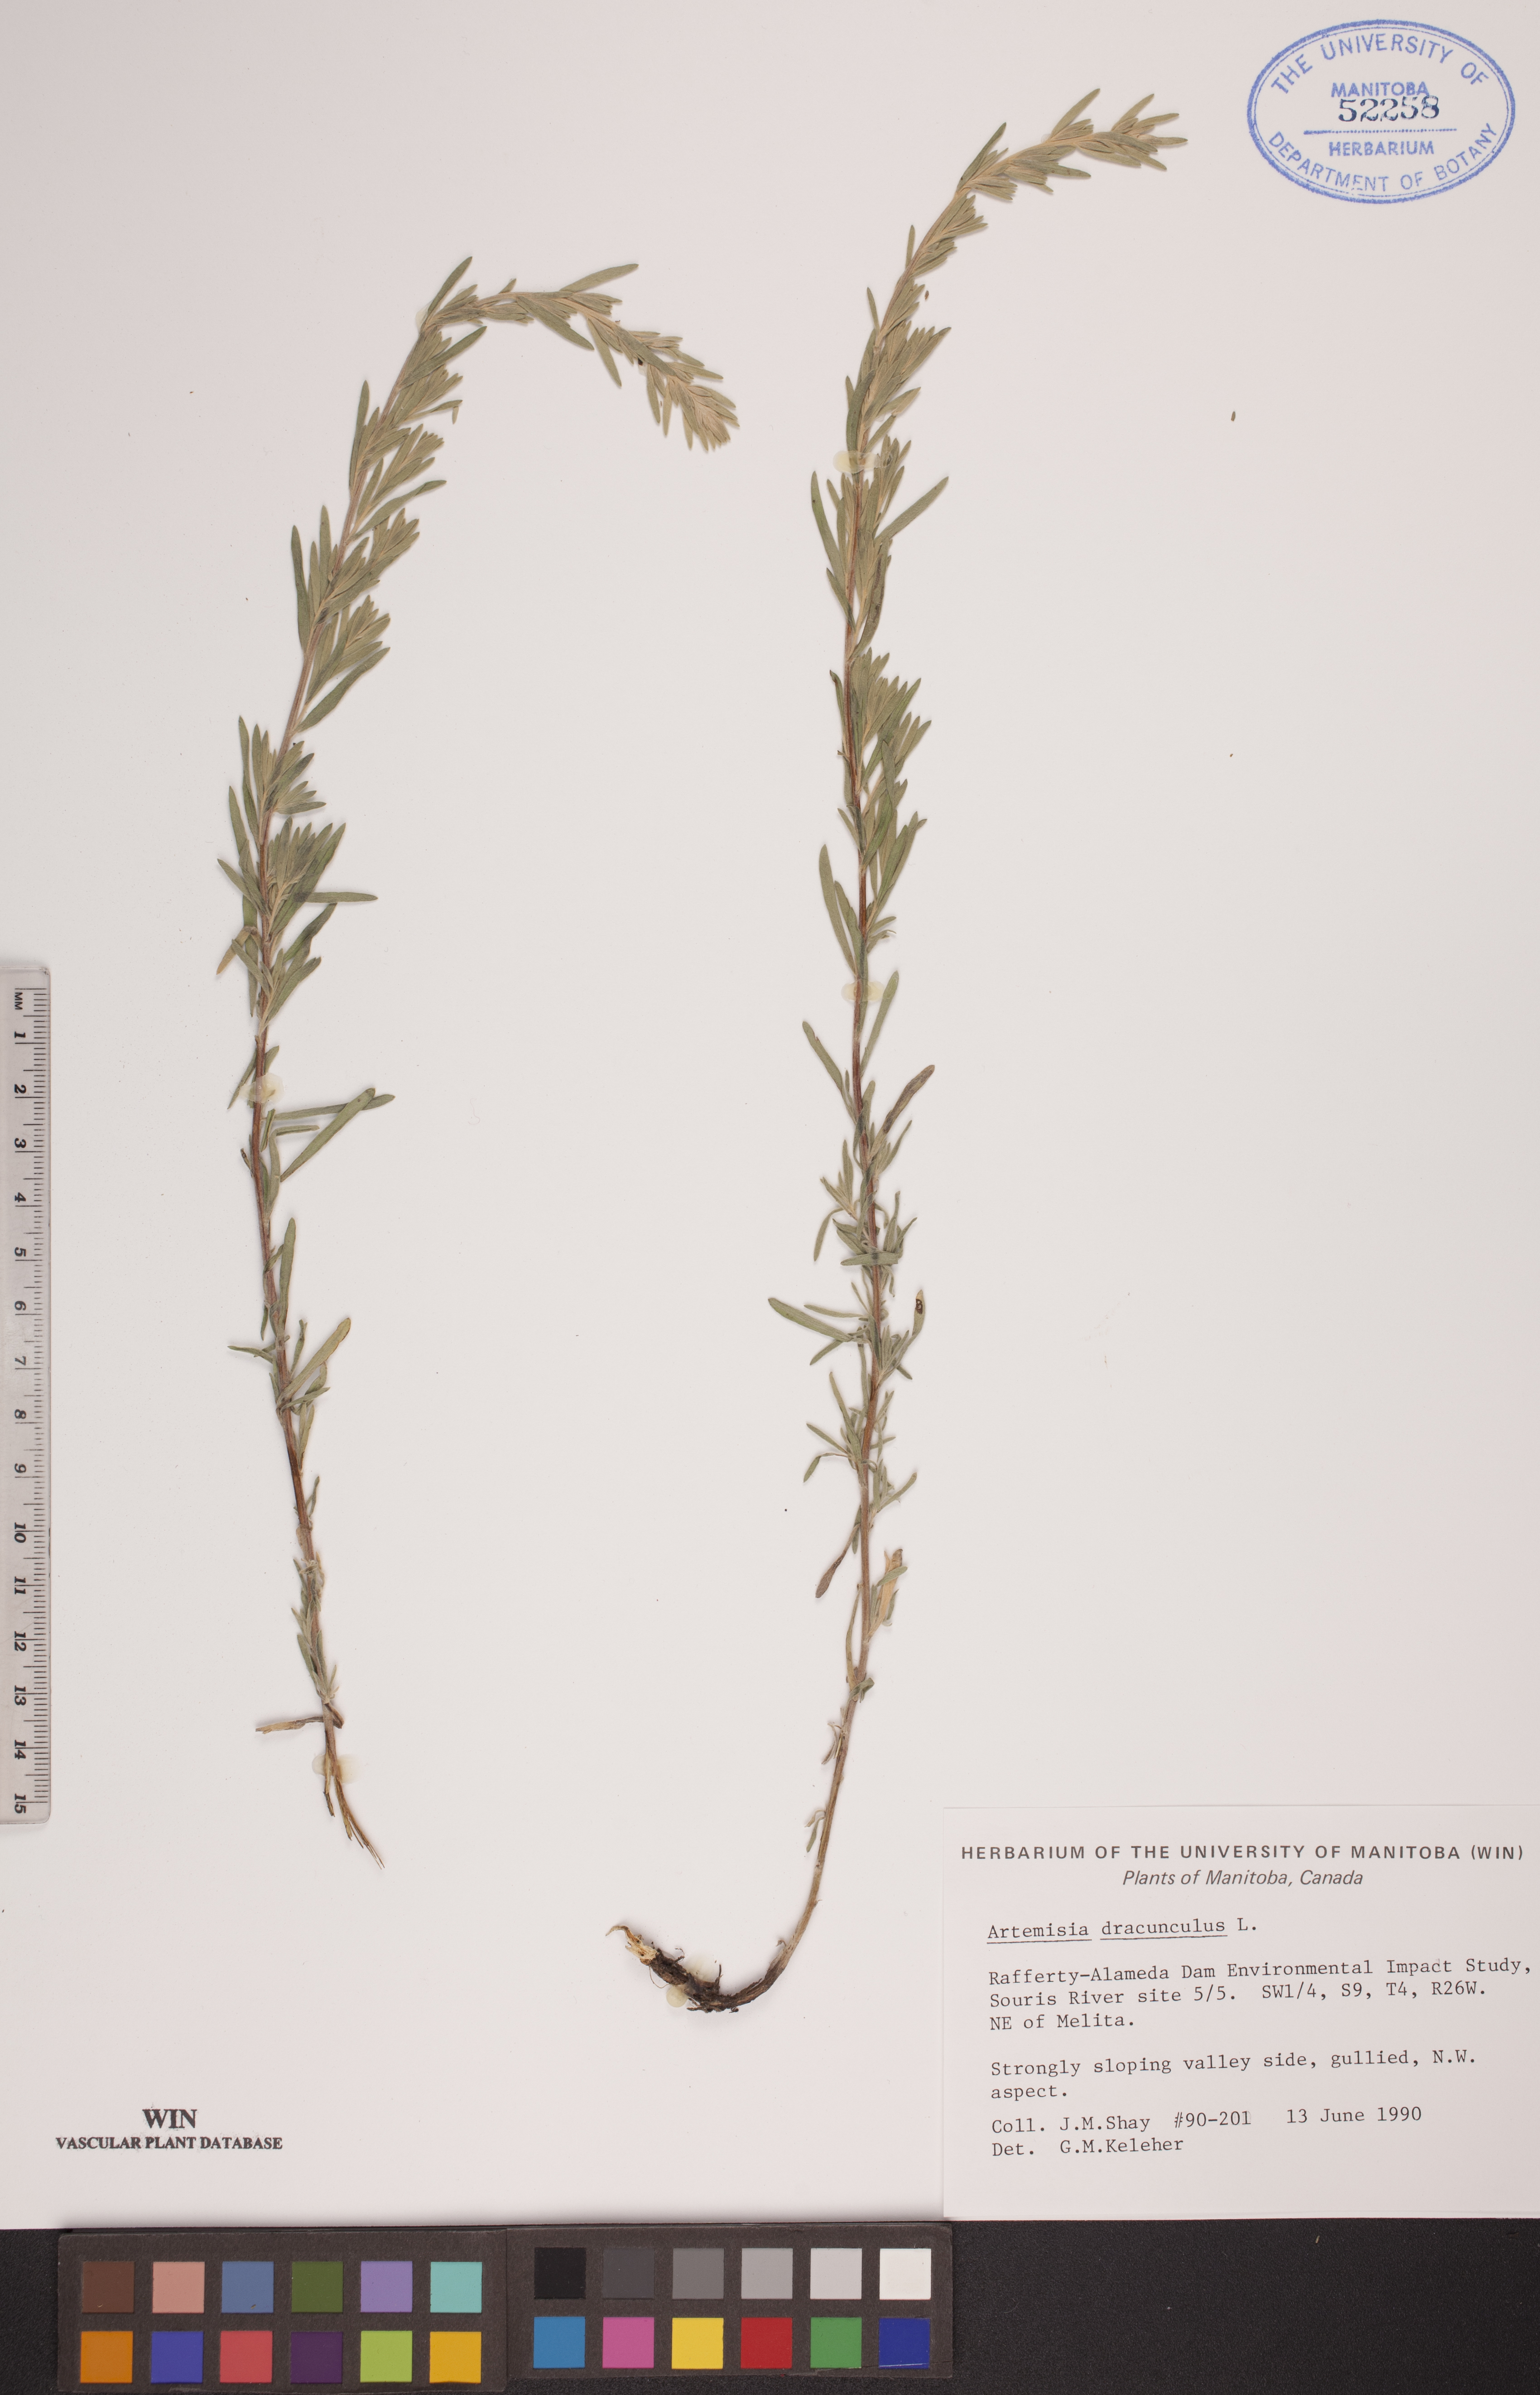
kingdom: Plantae
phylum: Tracheophyta
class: Magnoliopsida
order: Asterales
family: Asteraceae
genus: Artemisia
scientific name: Artemisia dracunculus
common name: Tarragon
